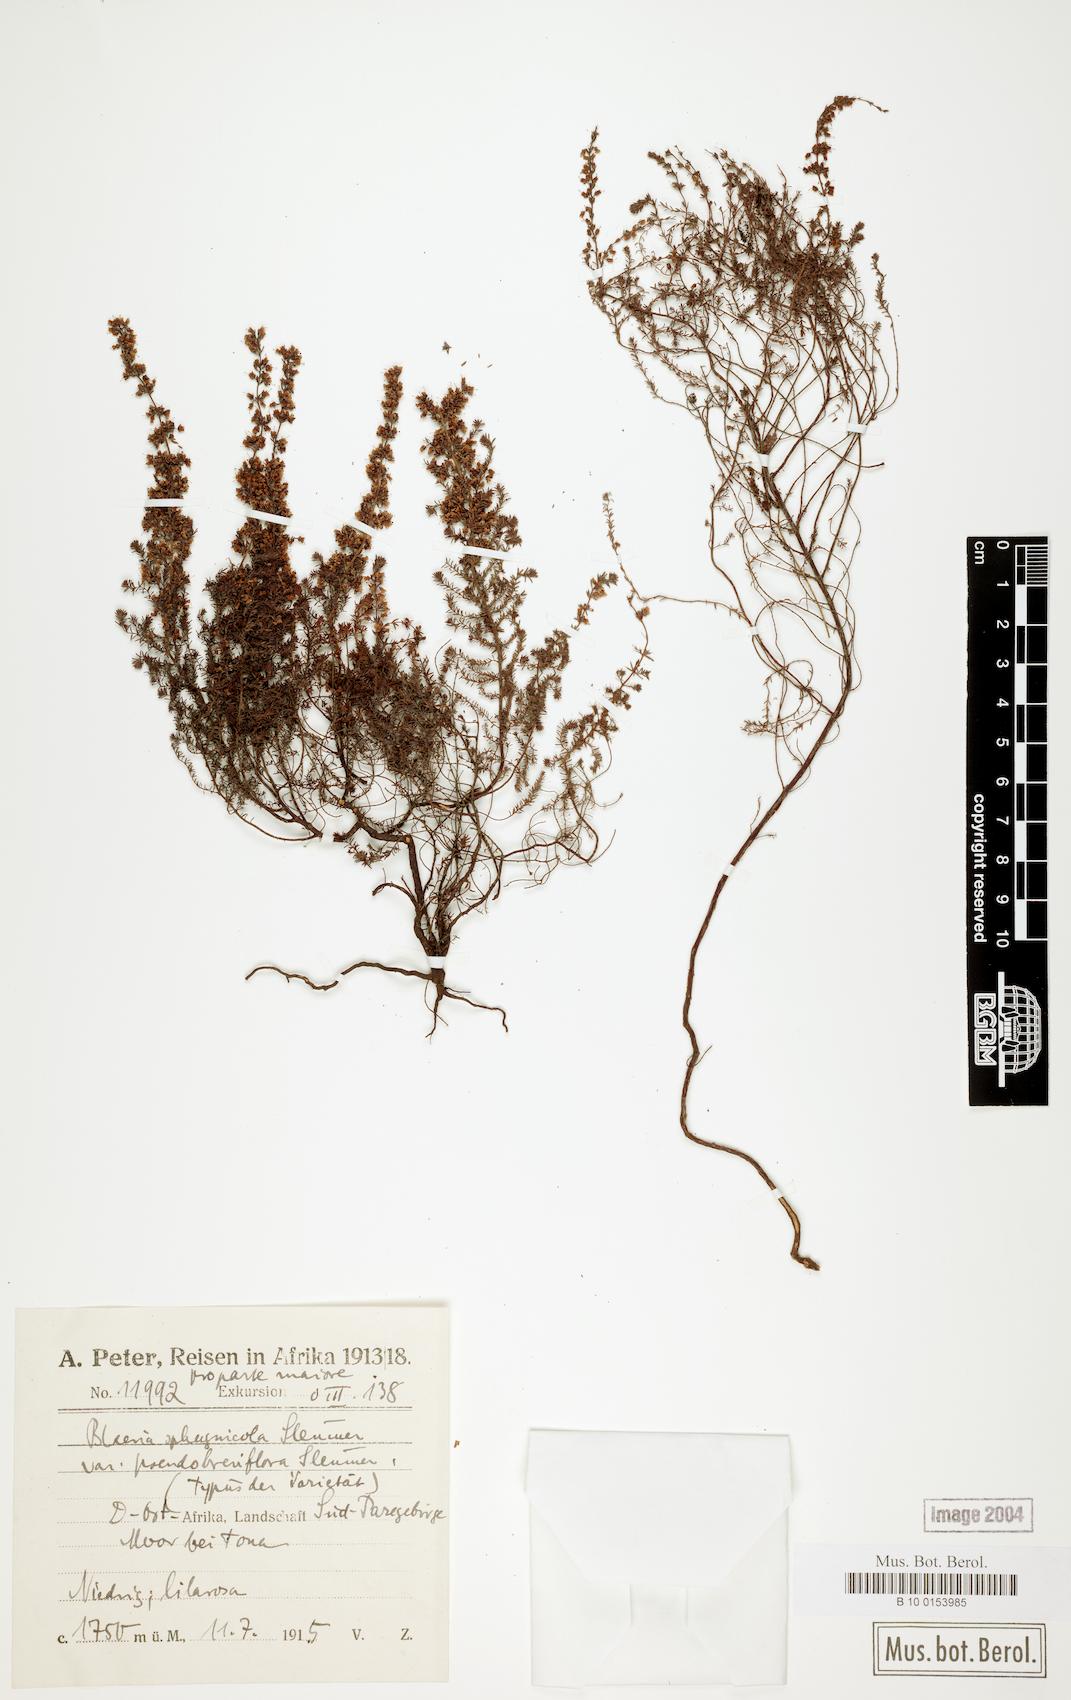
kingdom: Plantae
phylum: Tracheophyta
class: Magnoliopsida
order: Ericales
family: Ericaceae
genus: Erica
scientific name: Erica silvatica
